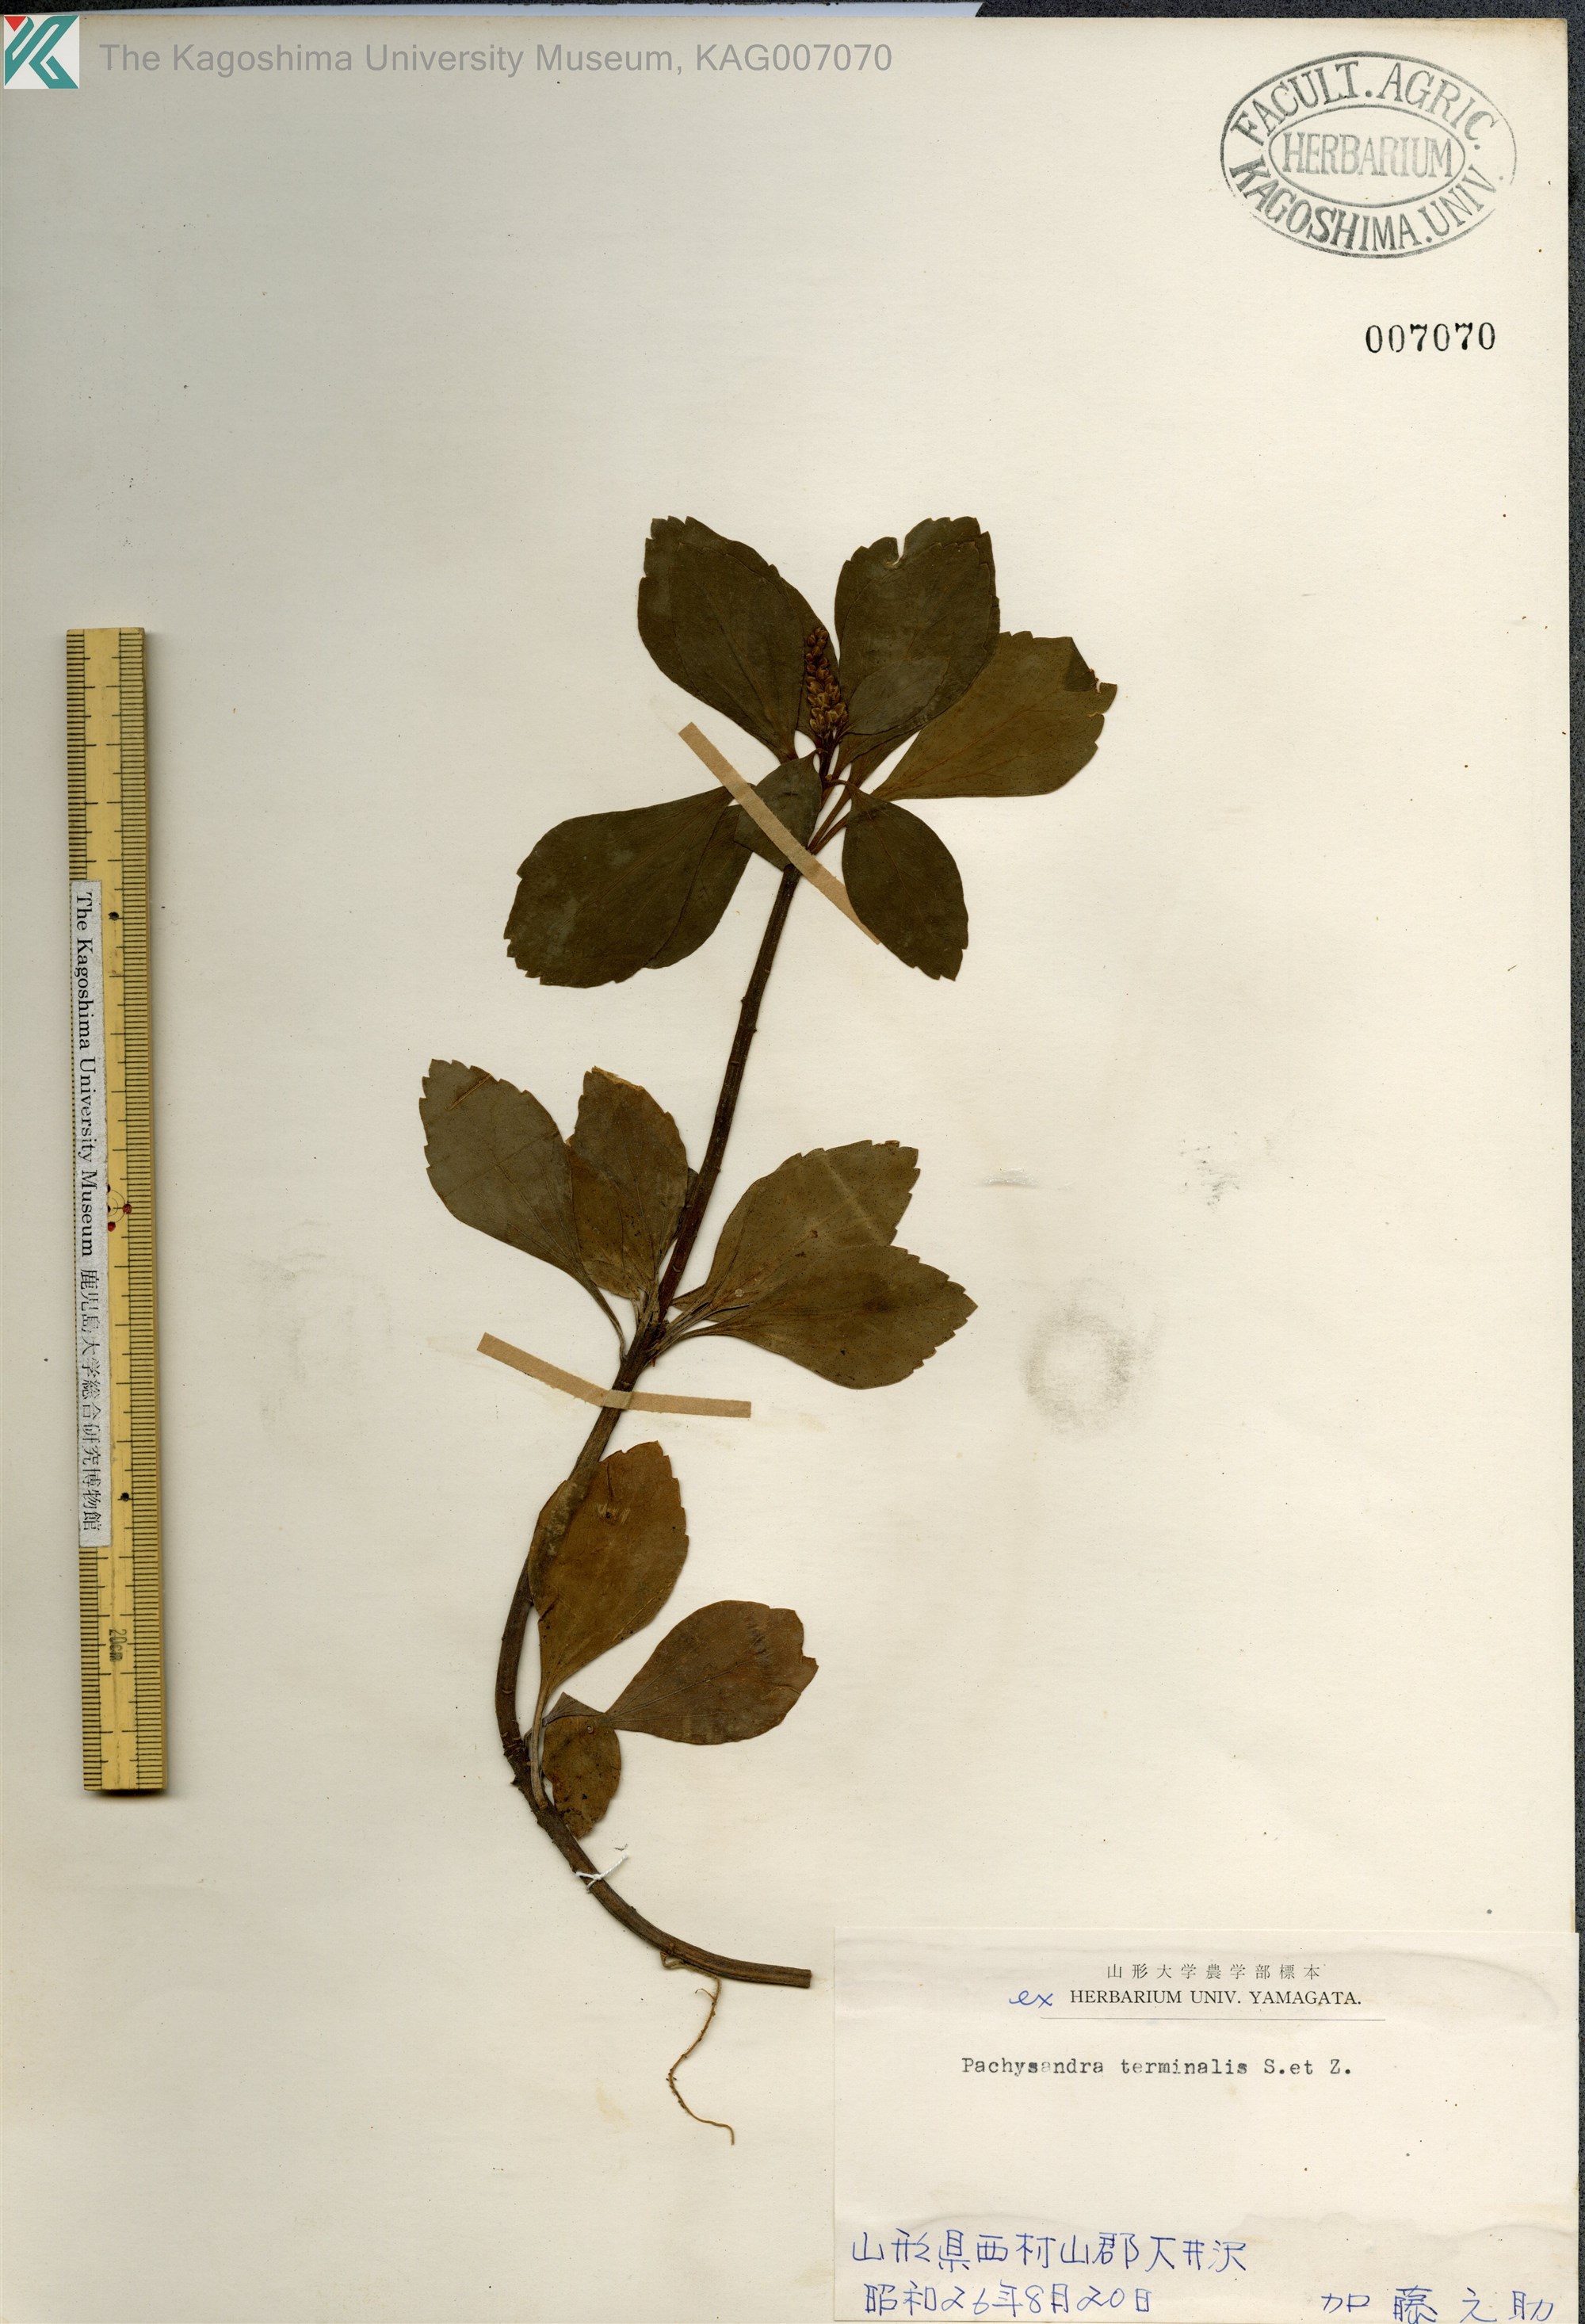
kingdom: Plantae
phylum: Tracheophyta
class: Magnoliopsida
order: Buxales
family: Buxaceae
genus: Pachysandra
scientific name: Pachysandra terminalis
